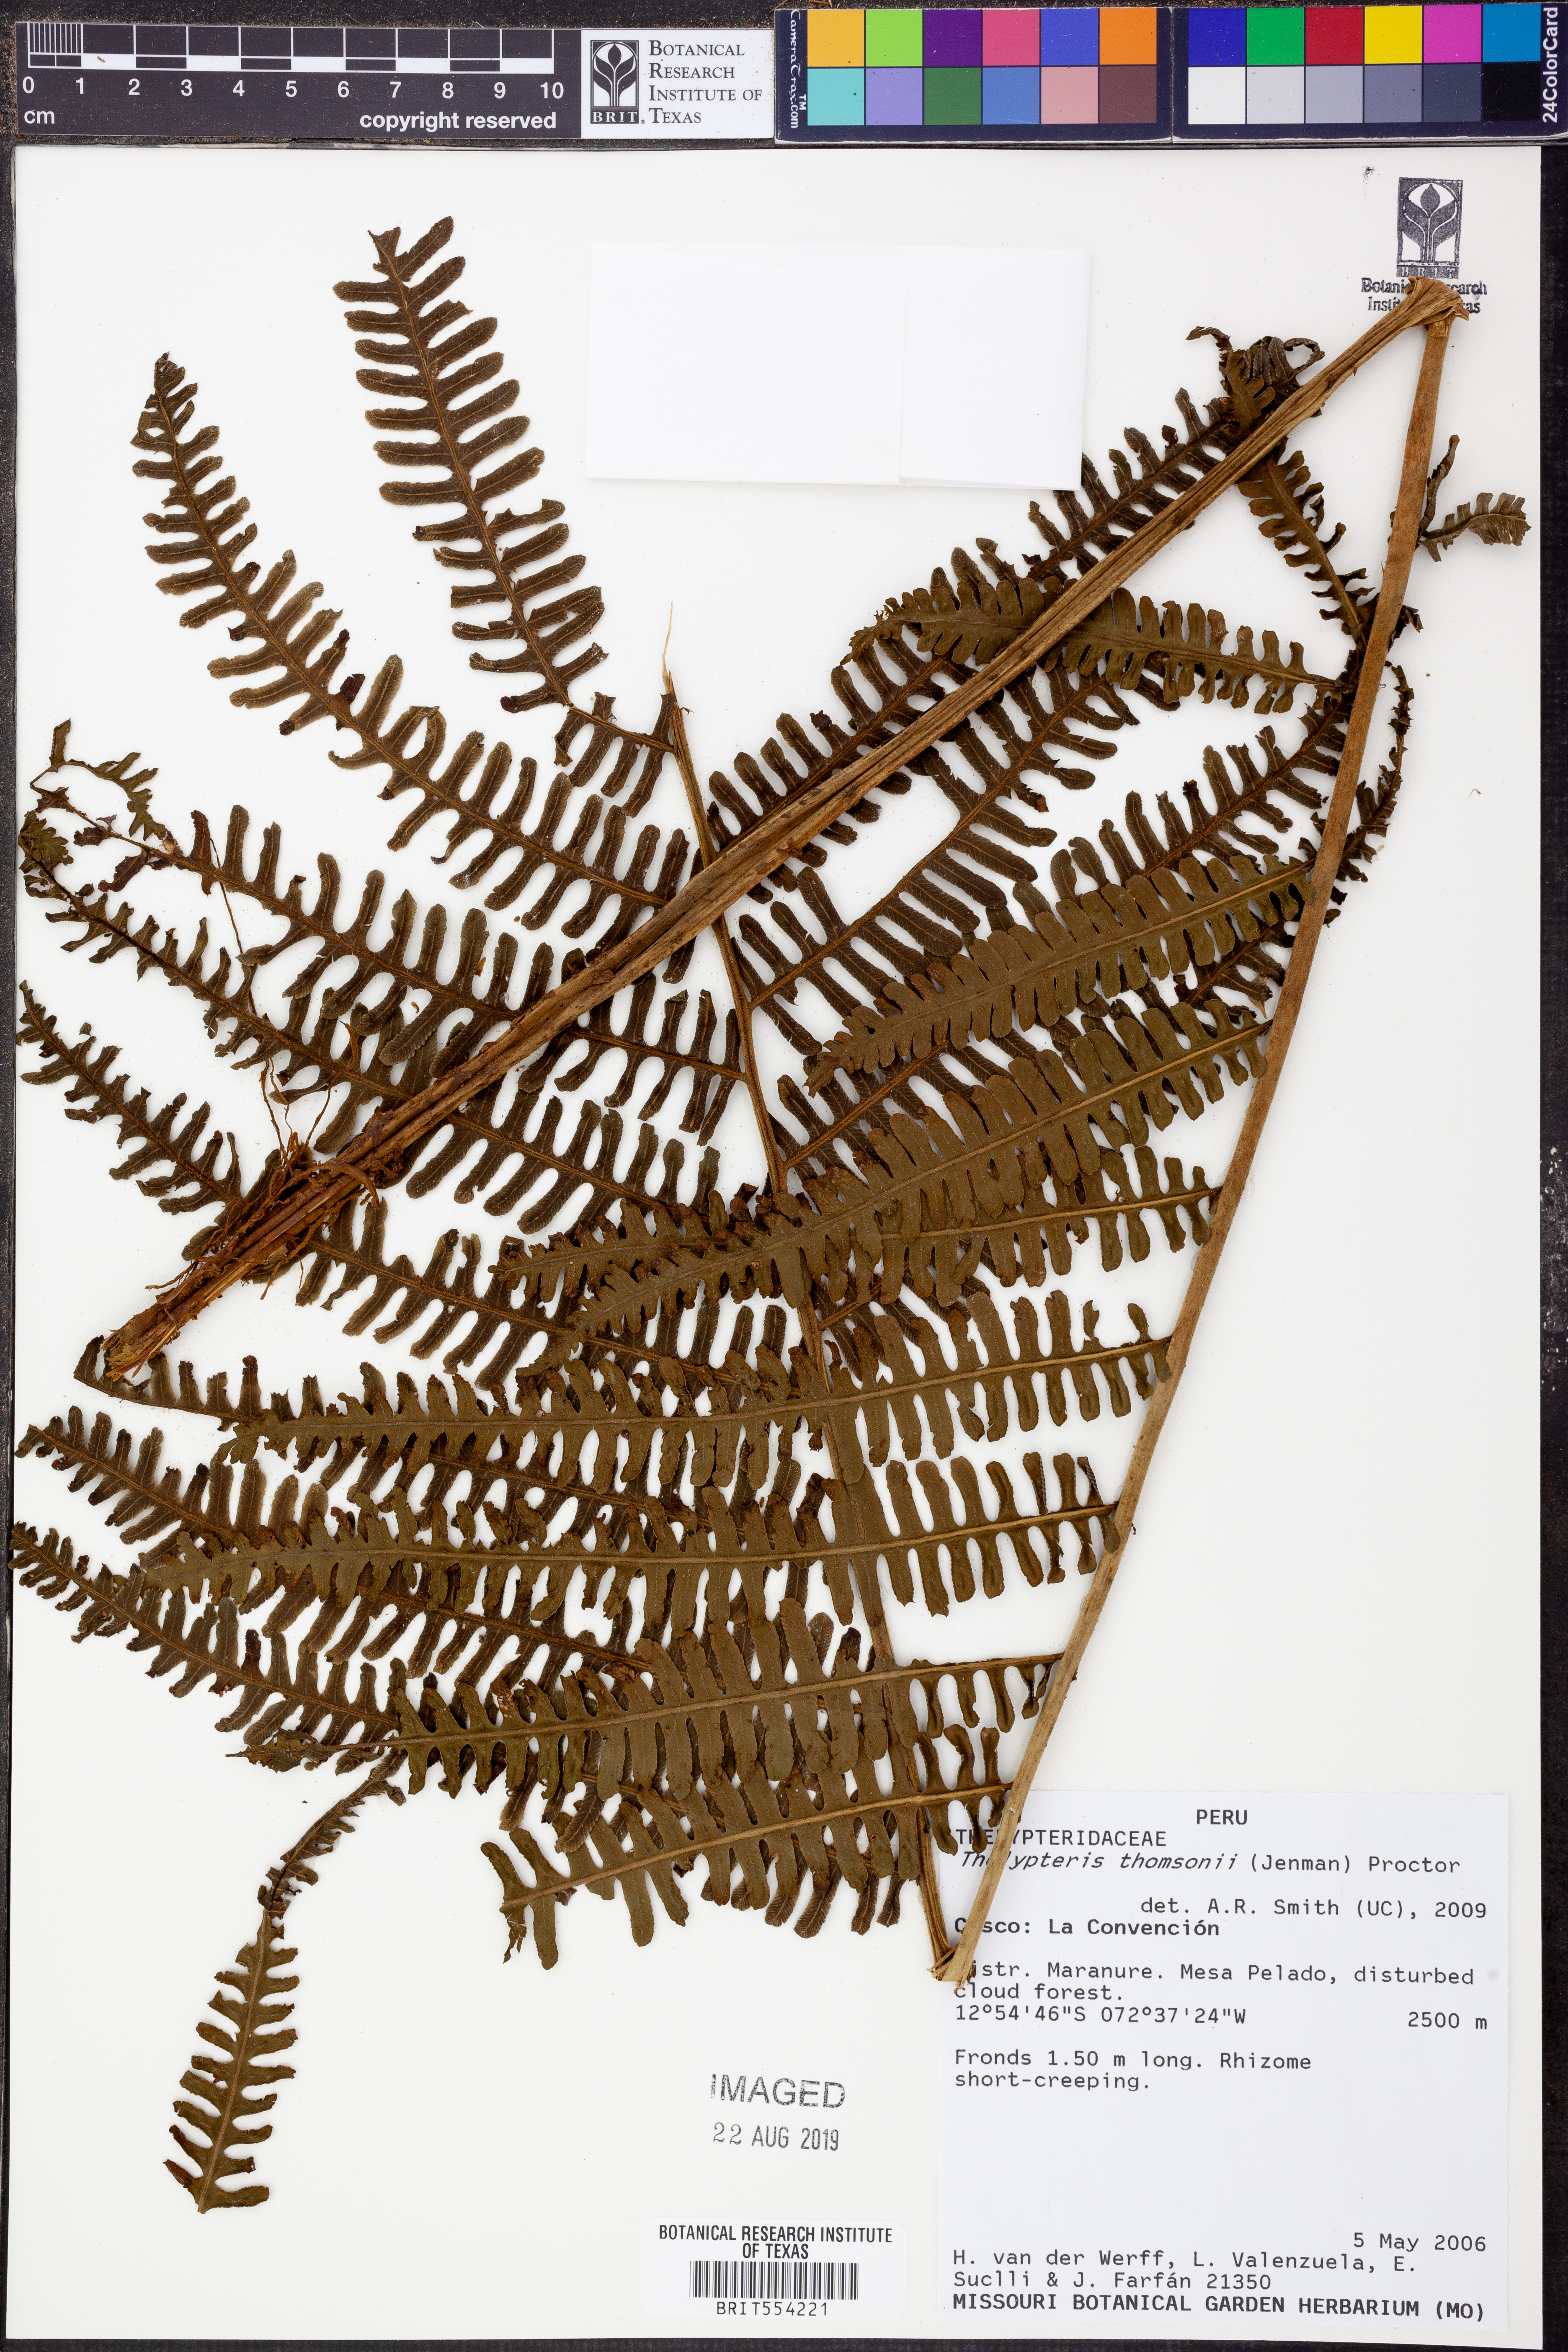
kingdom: Plantae
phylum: Tracheophyta
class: Polypodiopsida
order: Polypodiales
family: Thelypteridaceae
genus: Amauropelta
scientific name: Amauropelta thomsonii
